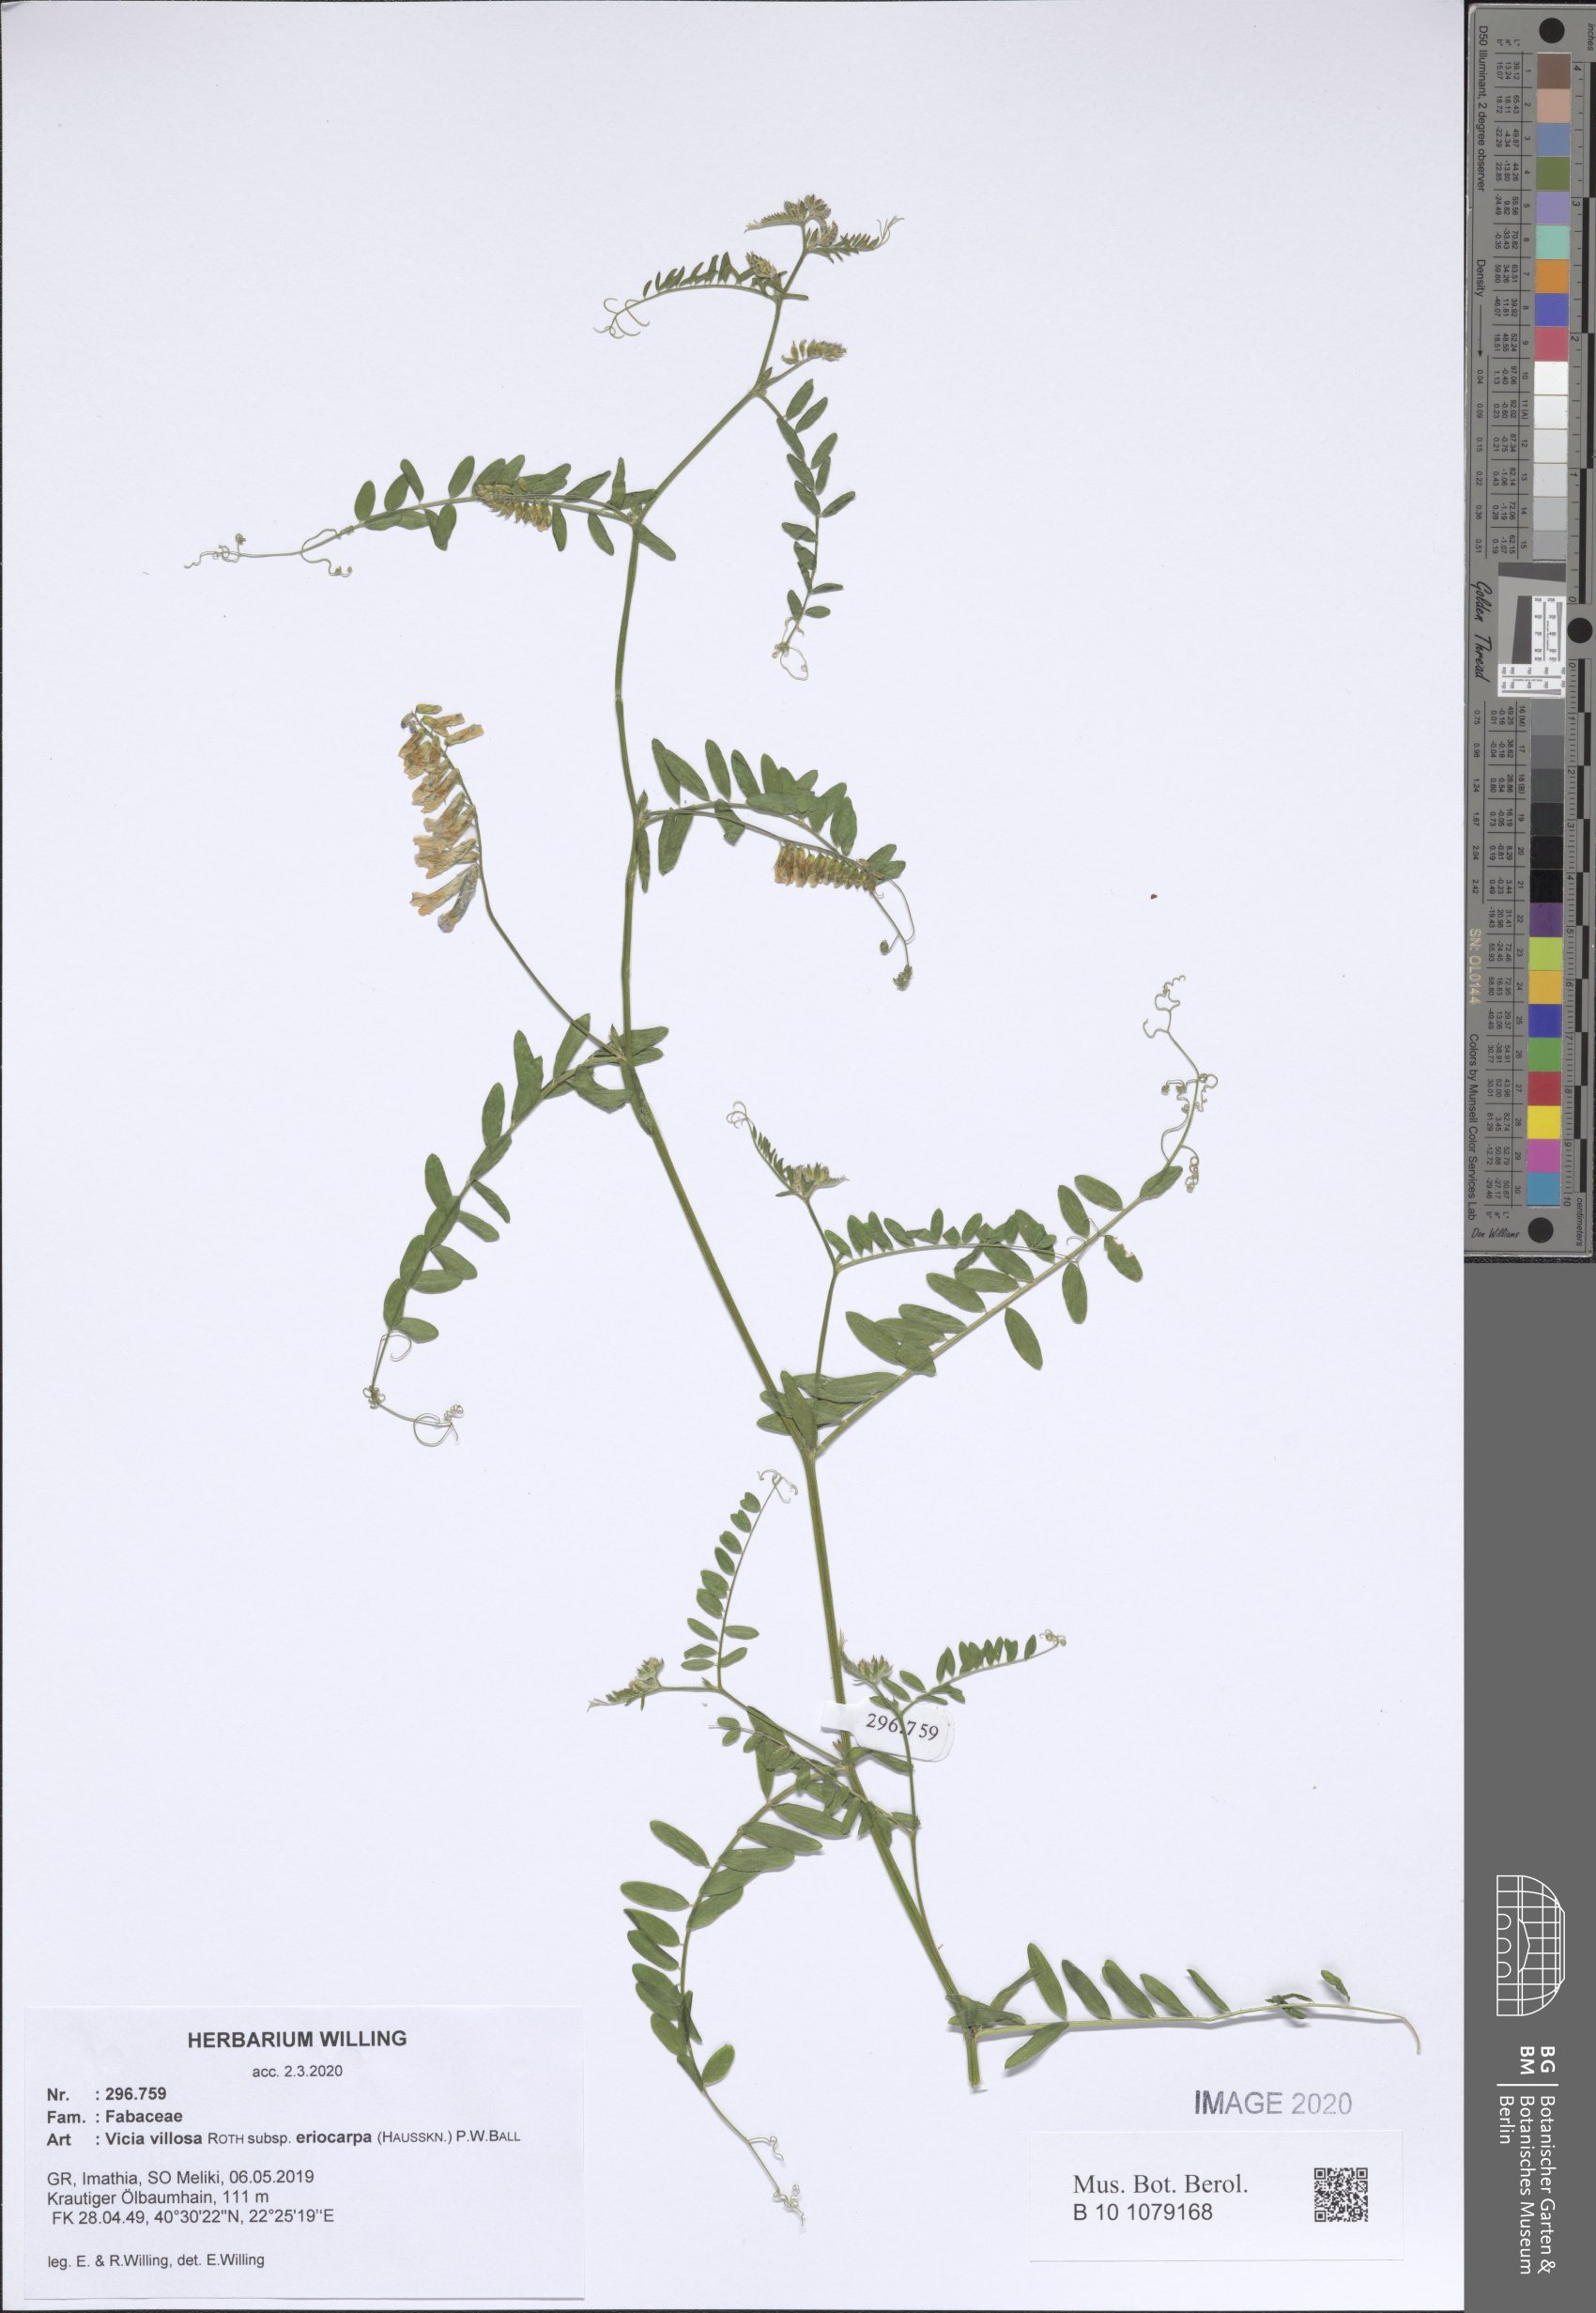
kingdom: Plantae
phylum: Tracheophyta
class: Magnoliopsida
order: Fabales
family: Fabaceae
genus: Vicia
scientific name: Vicia eriocarpa
